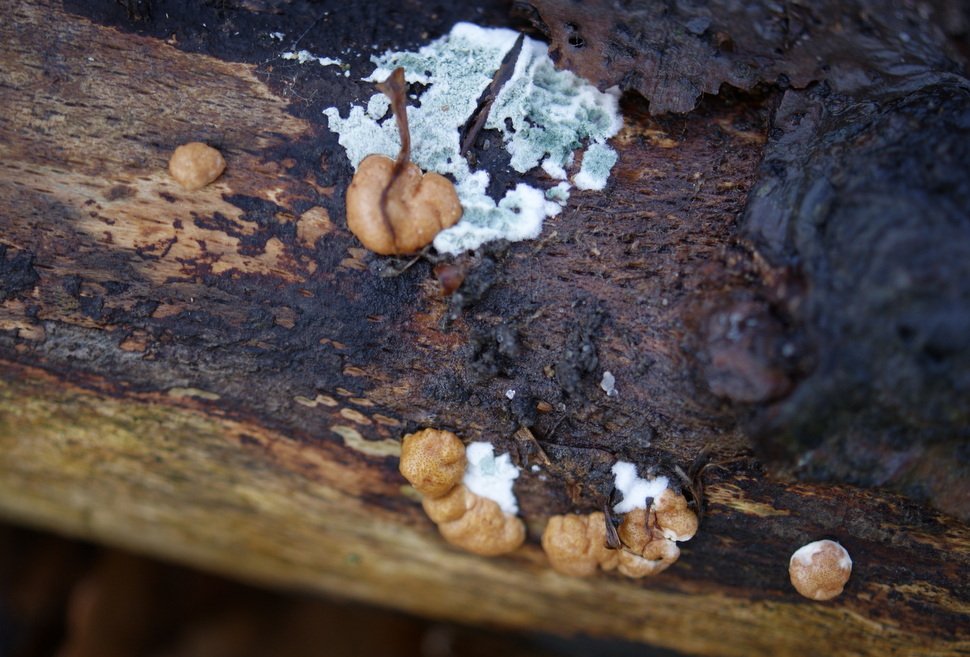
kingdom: Fungi
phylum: Ascomycota
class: Sordariomycetes
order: Hypocreales
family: Hypocreaceae
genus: Trichoderma
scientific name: Trichoderma europaeum
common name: rosabrun kødkerne
